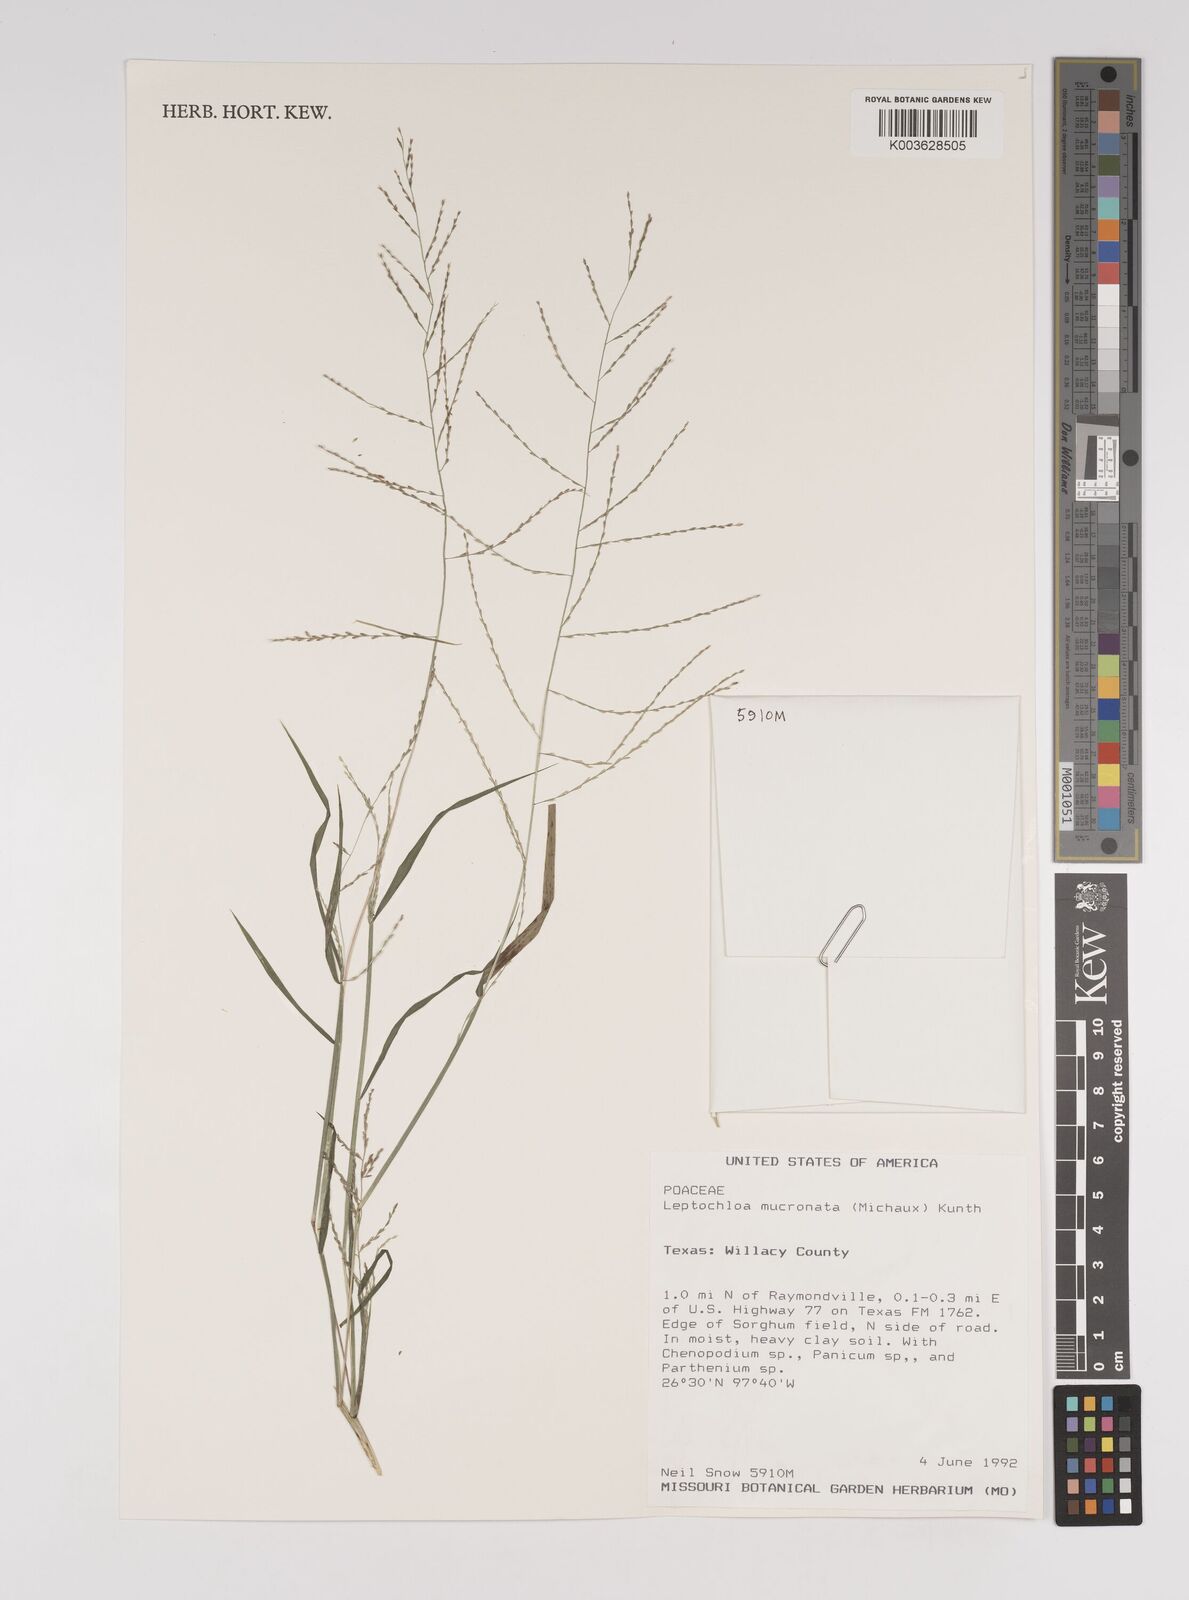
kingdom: Plantae
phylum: Tracheophyta
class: Liliopsida
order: Poales
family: Poaceae
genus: Leptochloa
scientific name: Leptochloa panicea
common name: Mucronate sprangletop
